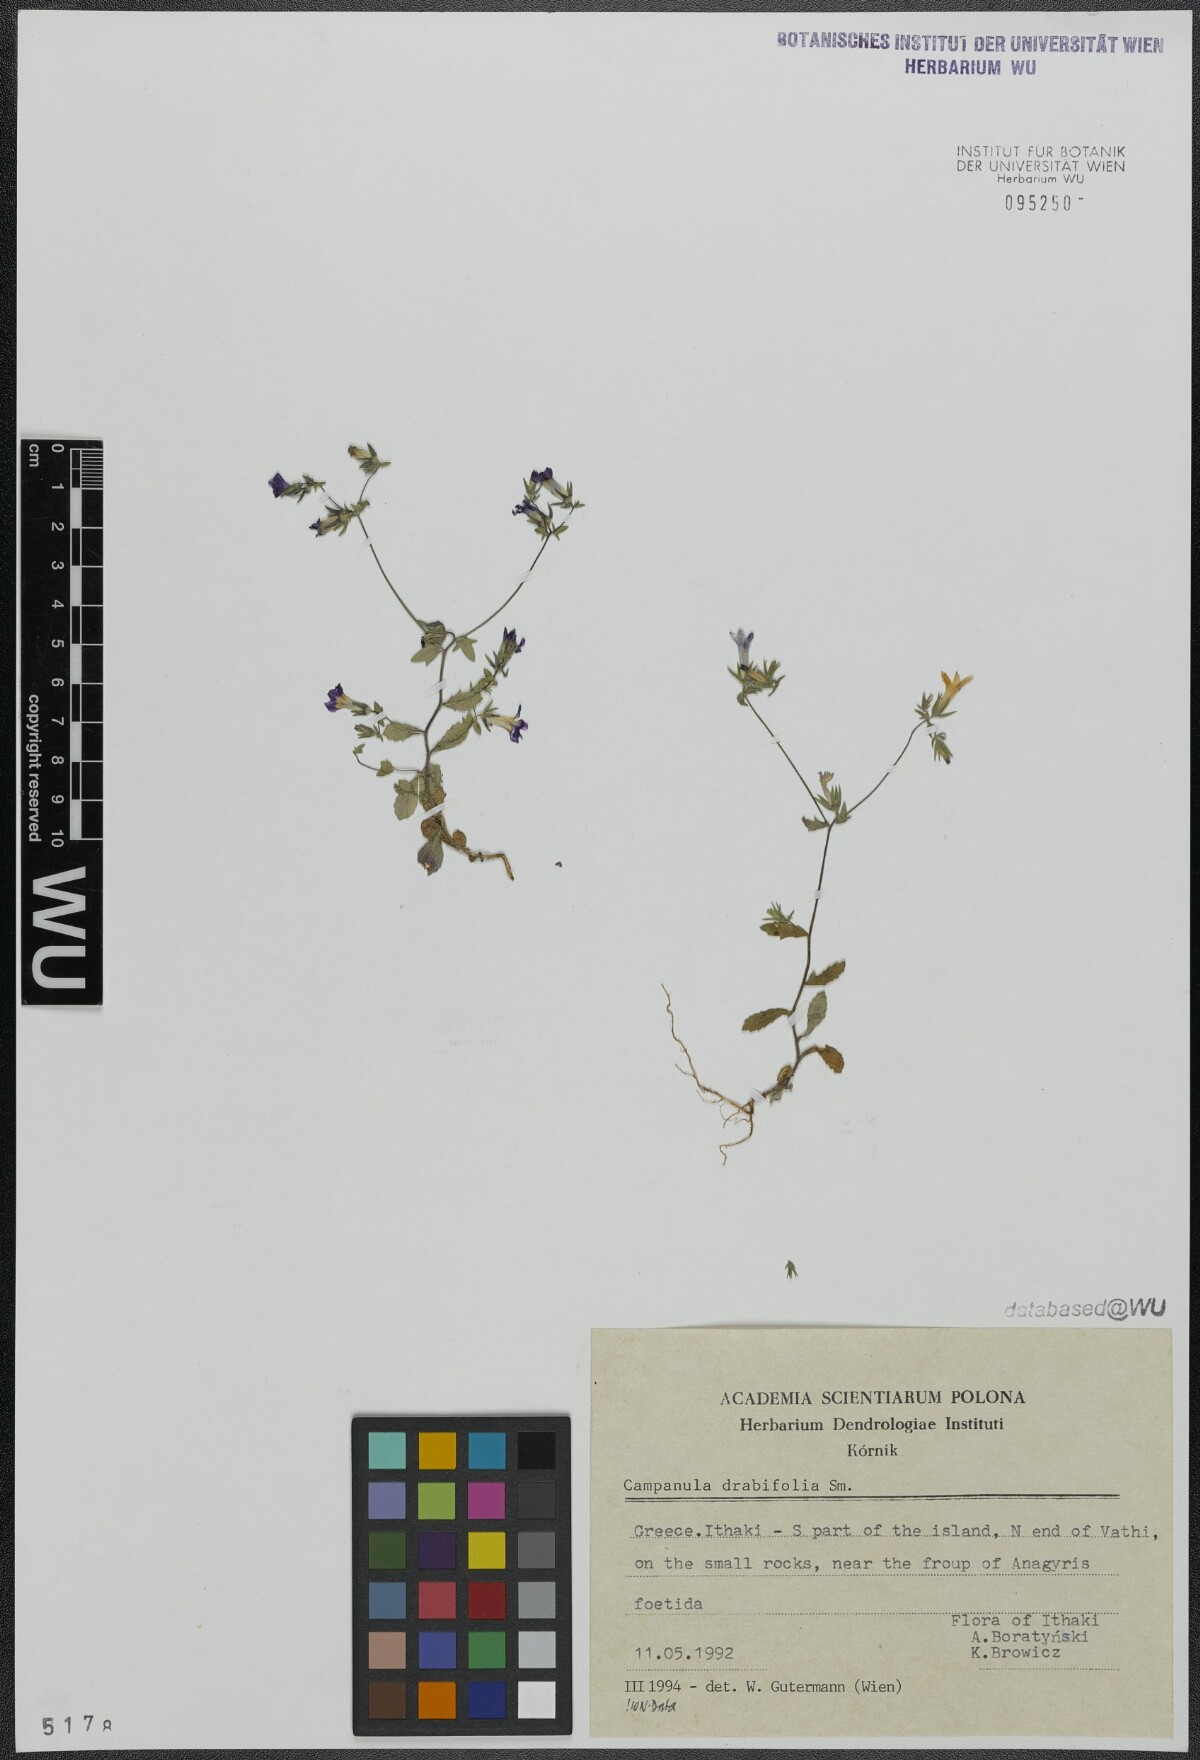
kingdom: Plantae
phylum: Tracheophyta
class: Magnoliopsida
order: Asterales
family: Campanulaceae
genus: Campanula
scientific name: Campanula drabifolia
